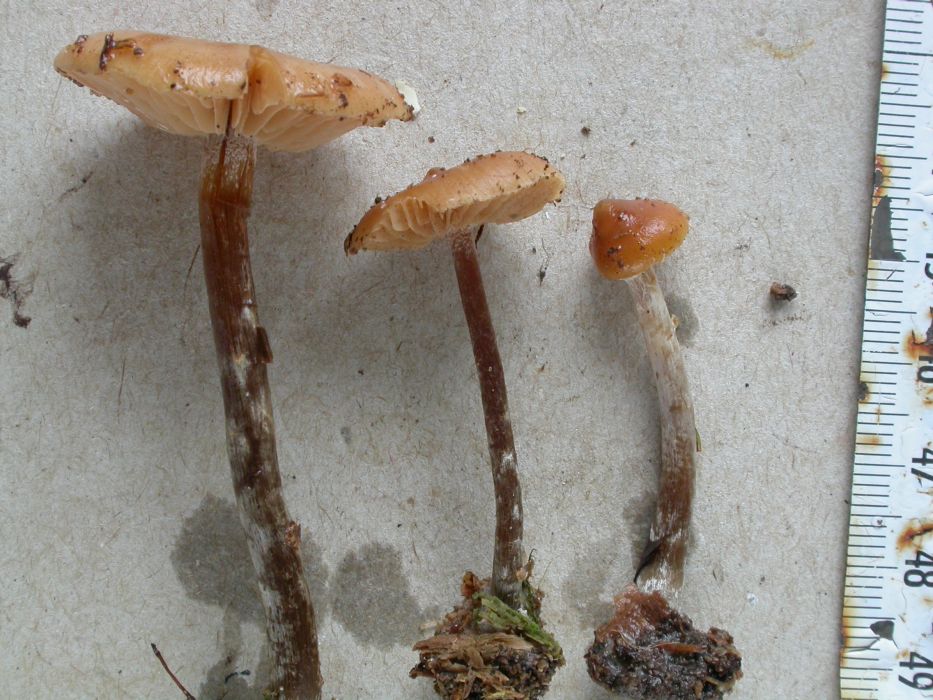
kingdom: Fungi
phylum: Basidiomycota
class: Agaricomycetes
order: Agaricales
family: Hymenogastraceae
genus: Galerina
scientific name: Galerina sideroides
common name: træflis-hjelmhat
